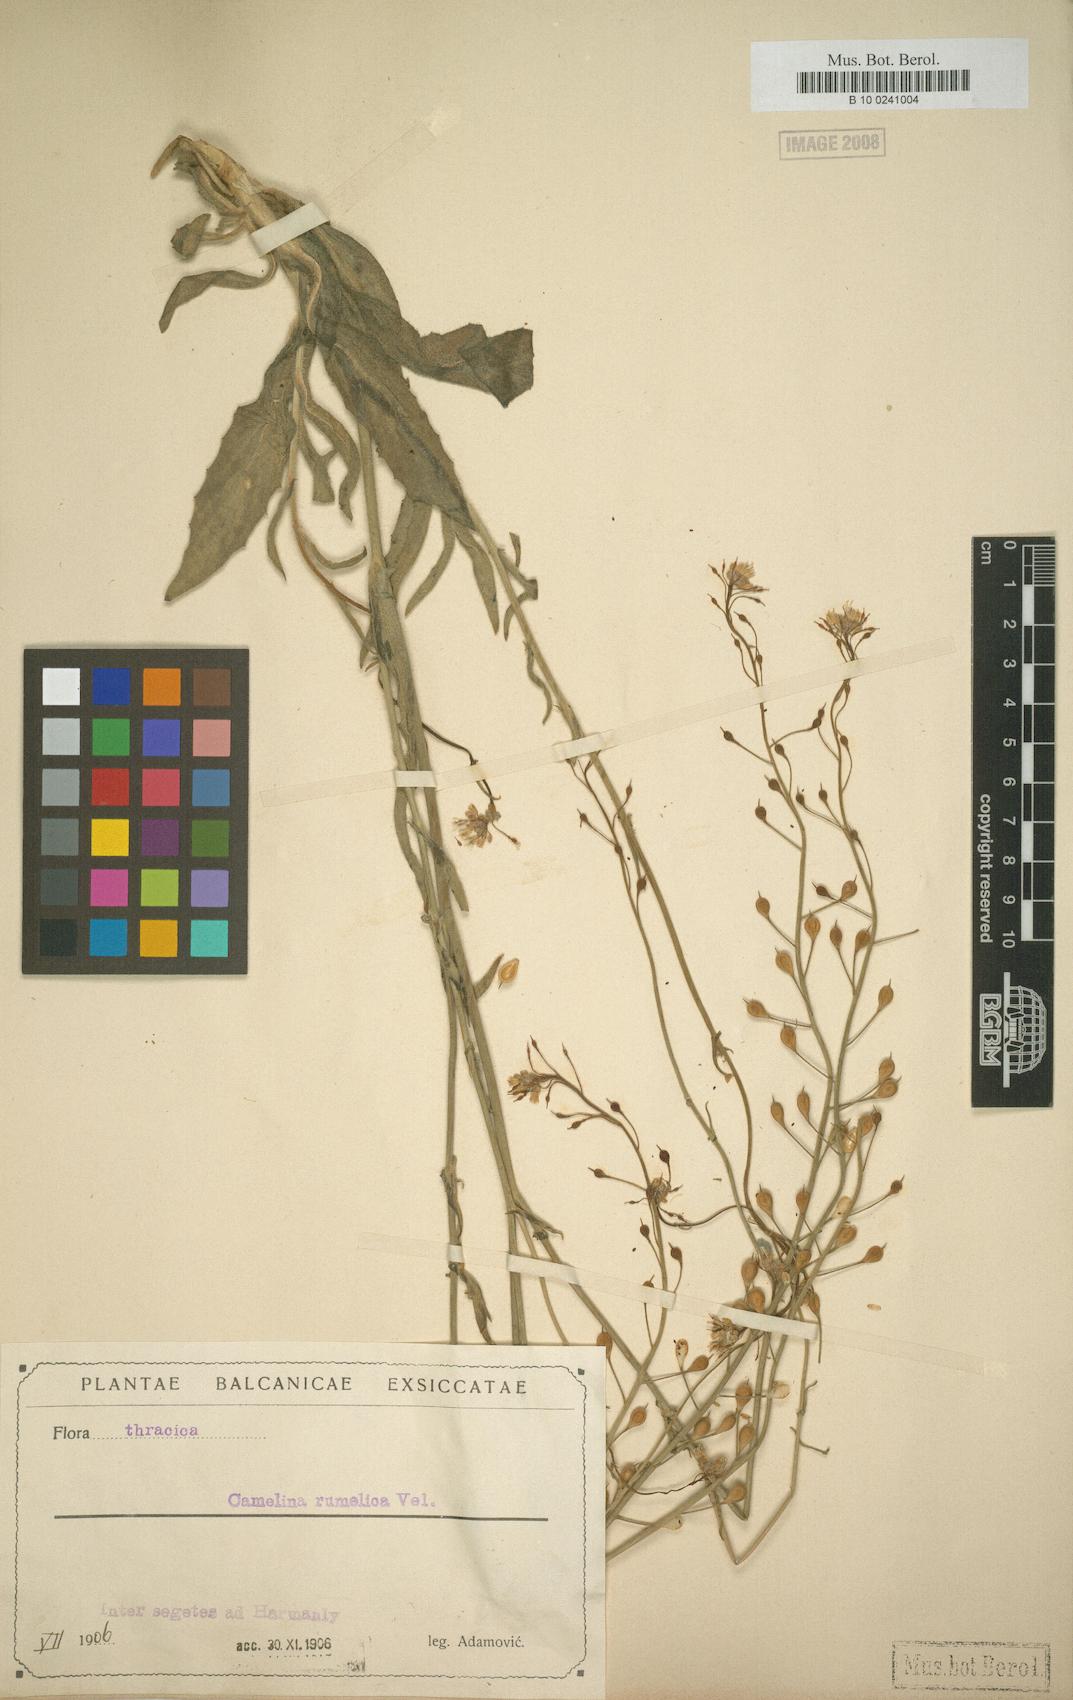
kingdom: Plantae
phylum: Tracheophyta
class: Magnoliopsida
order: Brassicales
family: Brassicaceae
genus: Camelina
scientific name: Camelina rumelica
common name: Graceful false flax
